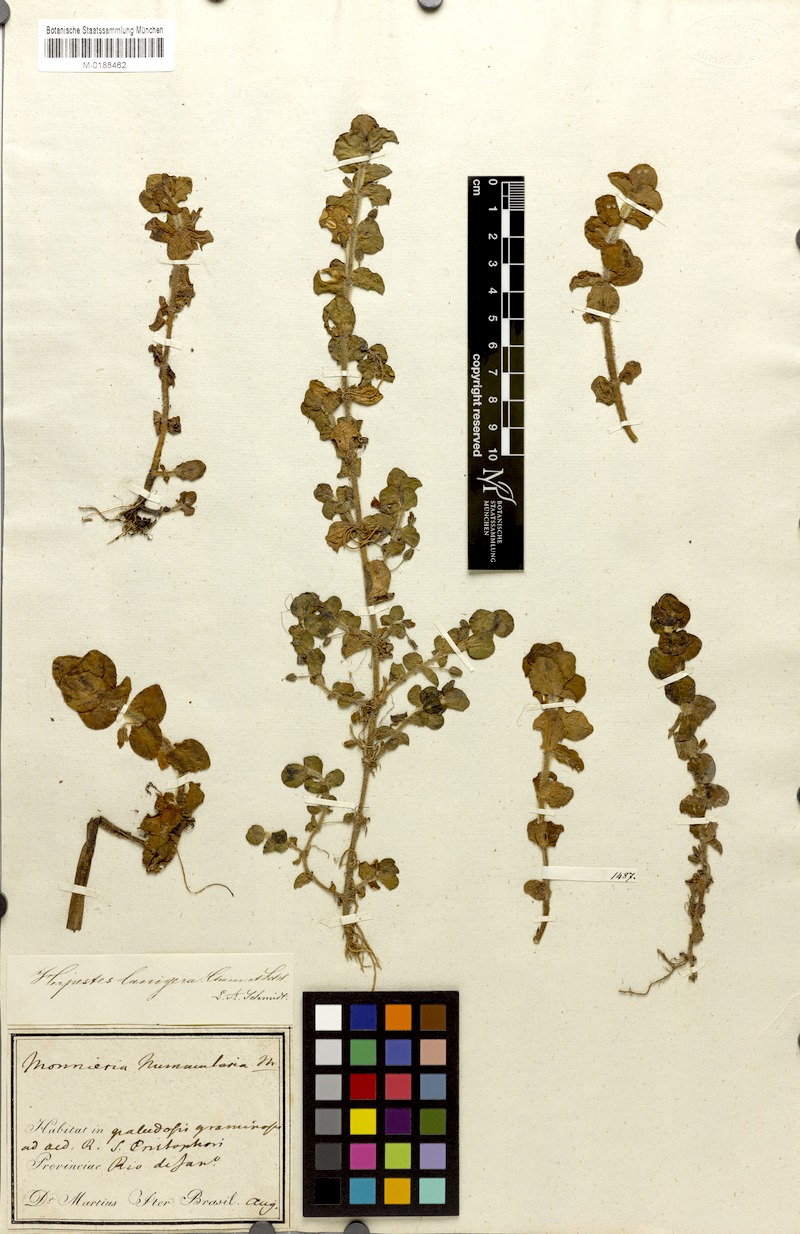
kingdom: Plantae
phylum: Tracheophyta
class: Magnoliopsida
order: Lamiales
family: Plantaginaceae
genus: Bacopa
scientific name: Bacopa lanigera
